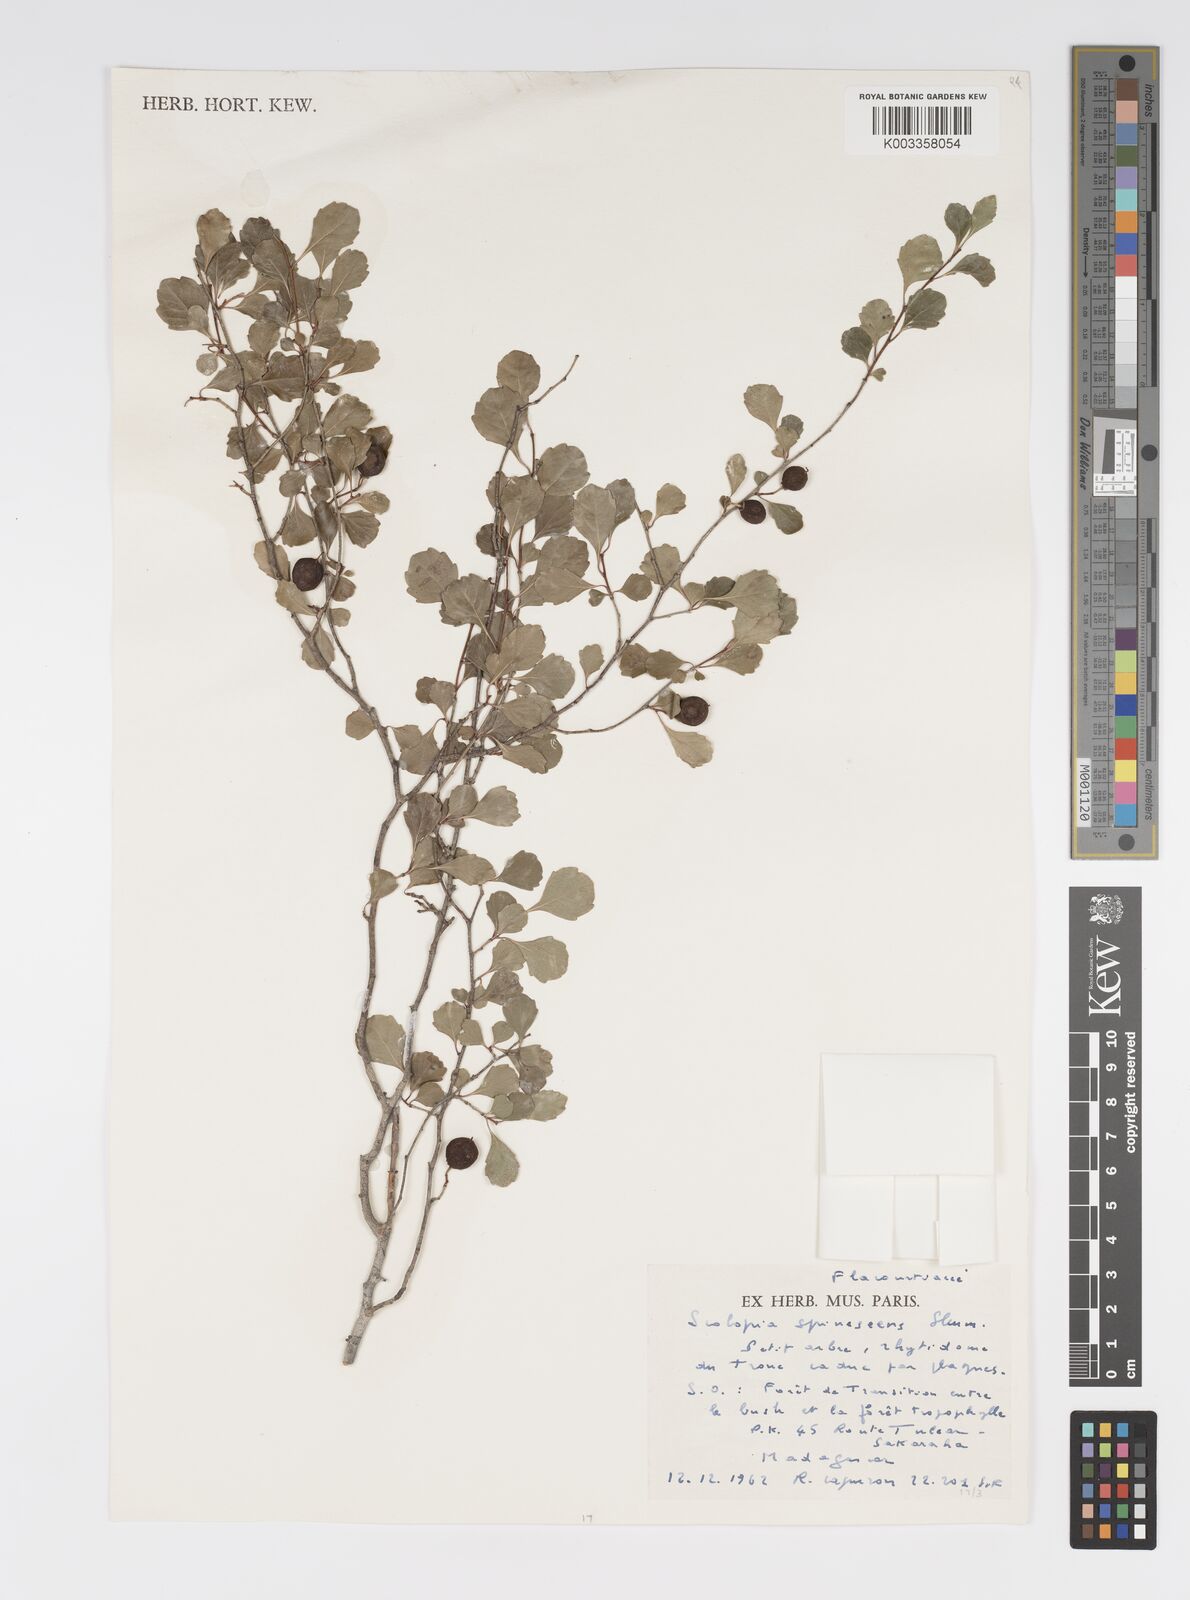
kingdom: Plantae
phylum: Tracheophyta
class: Magnoliopsida
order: Malpighiales
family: Salicaceae
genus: Scolopia
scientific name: Scolopia spinescens
